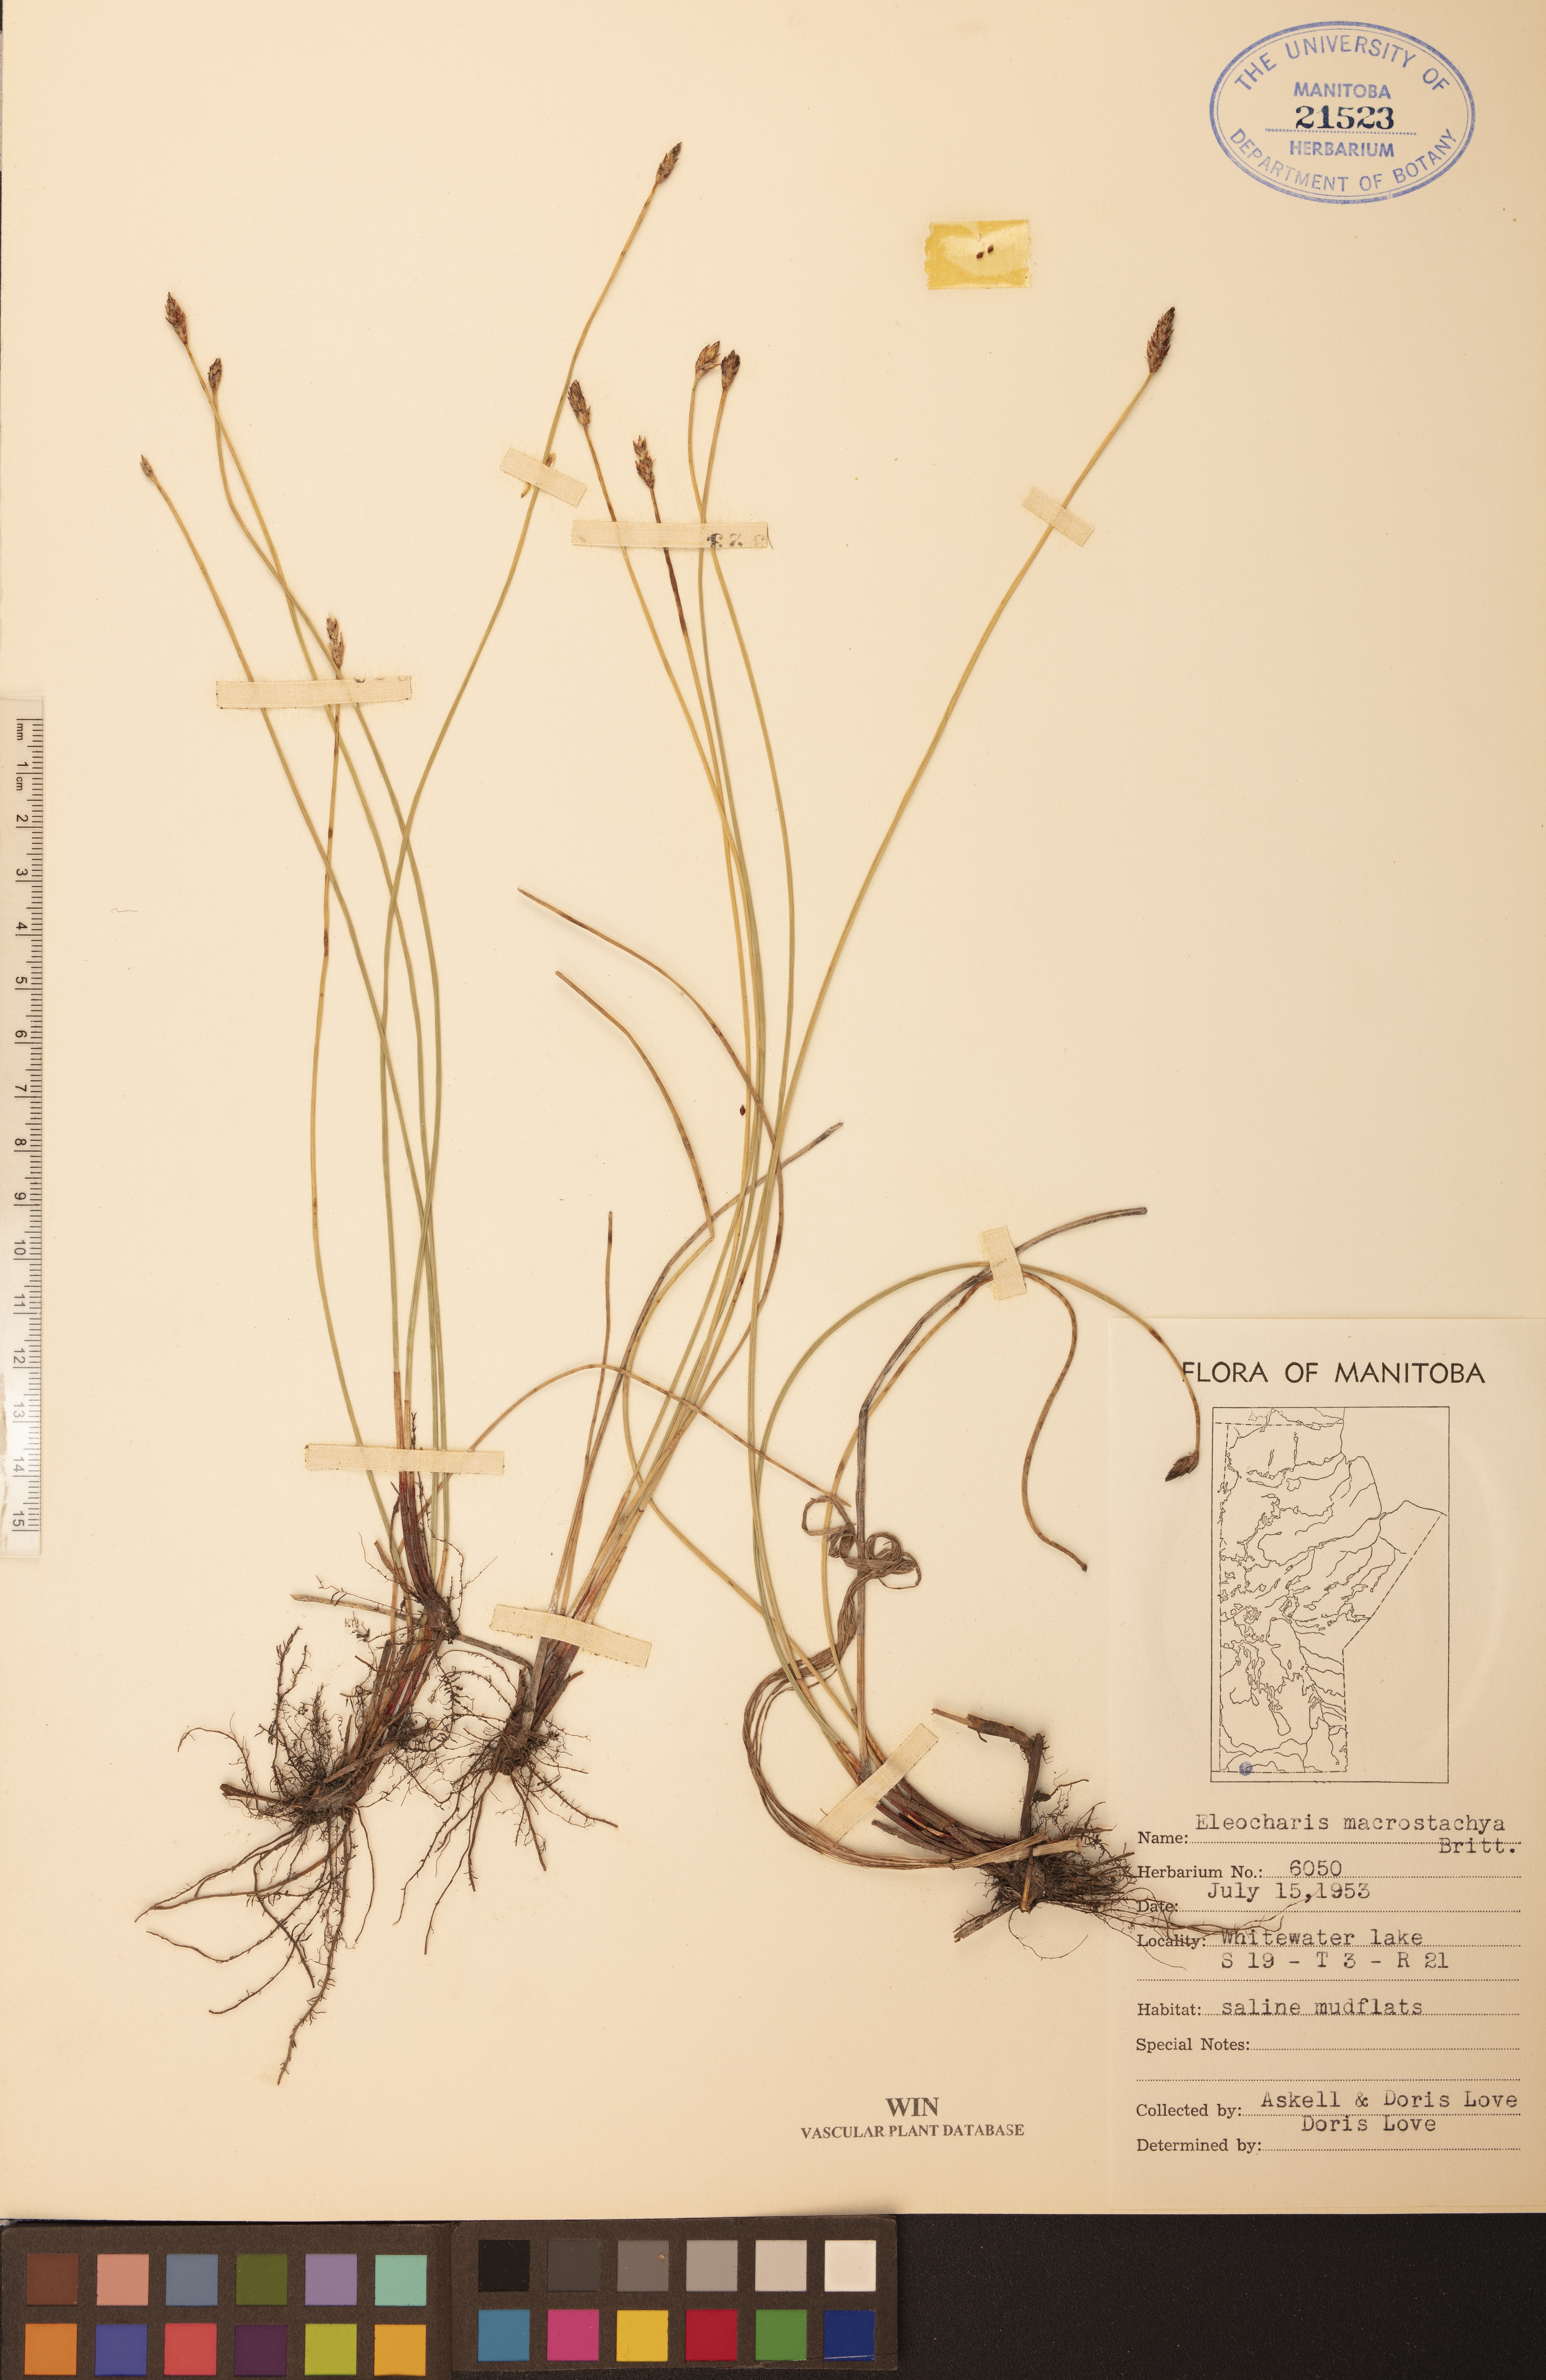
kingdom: Plantae
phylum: Tracheophyta
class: Liliopsida
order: Poales
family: Cyperaceae
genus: Eleocharis
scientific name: Eleocharis macrostachya
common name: Pale spikerush
